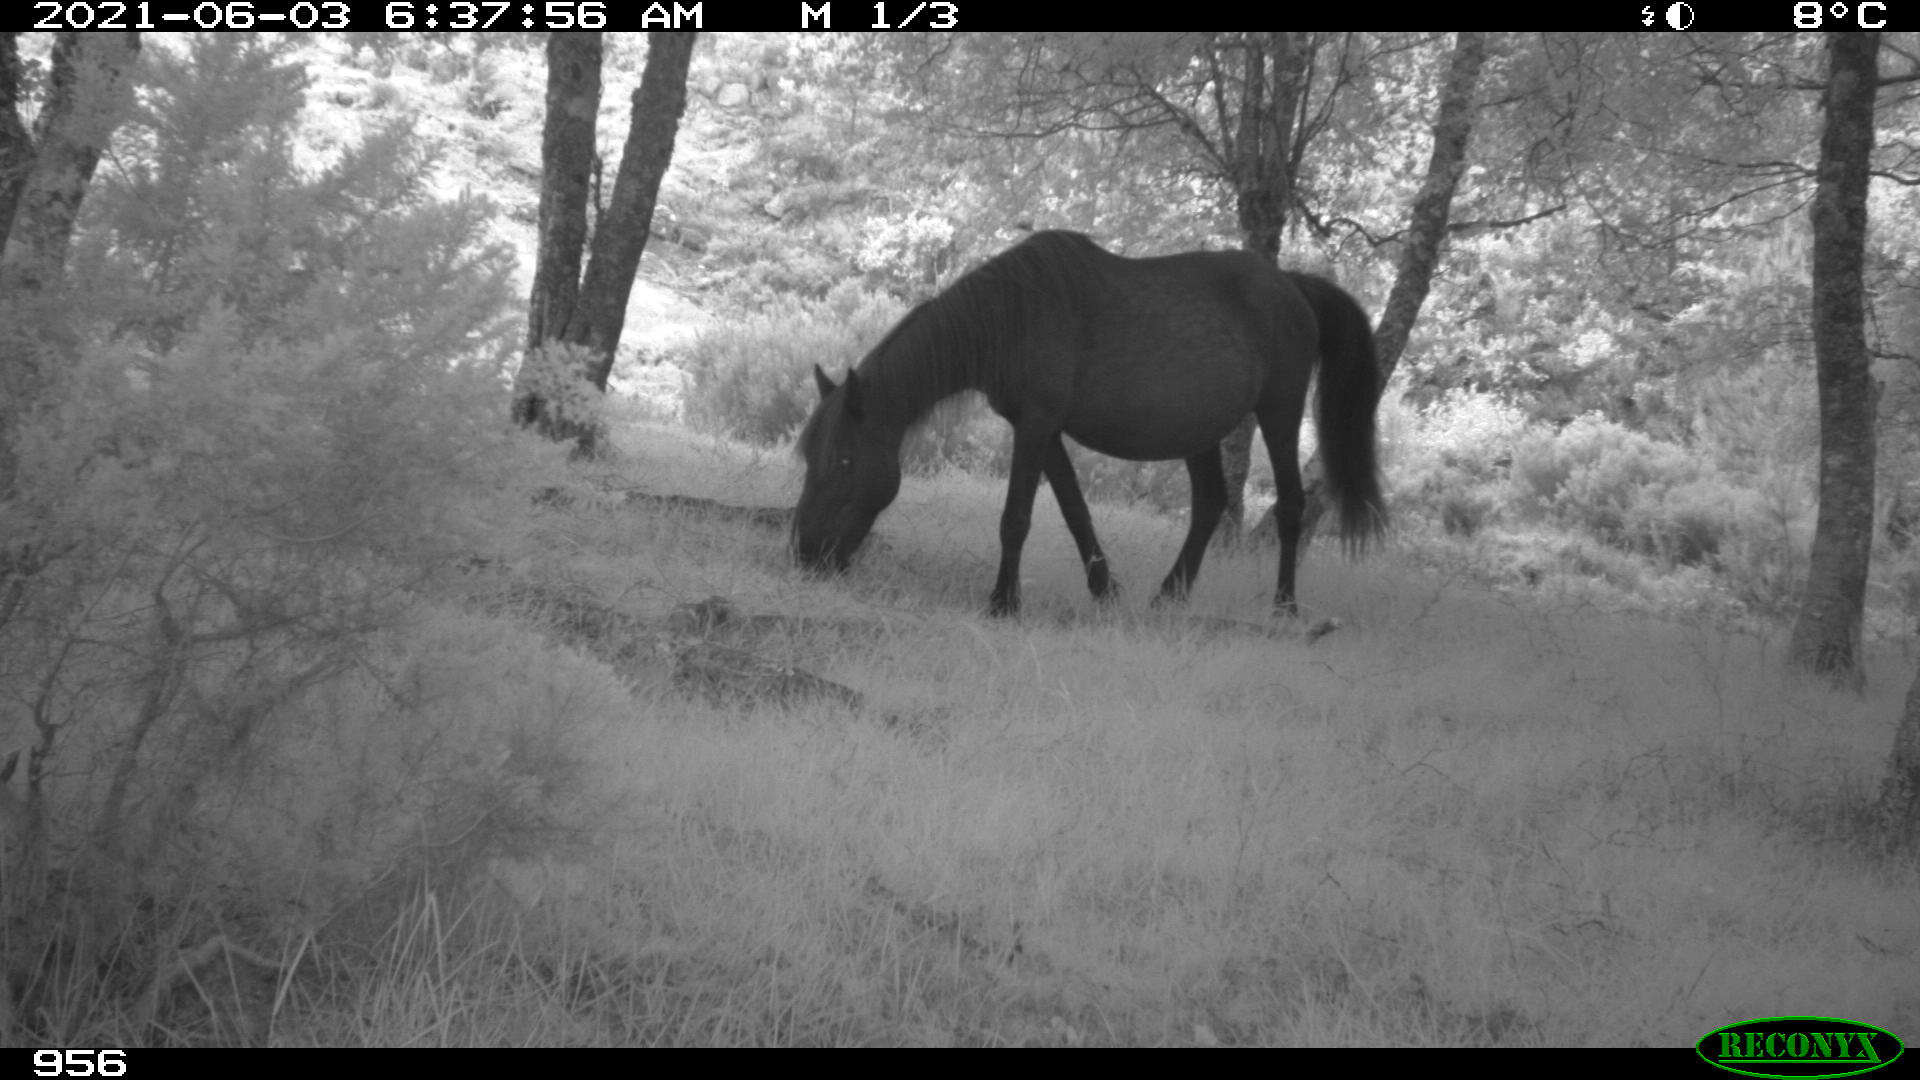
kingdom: Animalia
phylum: Chordata
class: Mammalia
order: Perissodactyla
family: Equidae
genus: Equus
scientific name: Equus caballus
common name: Horse
